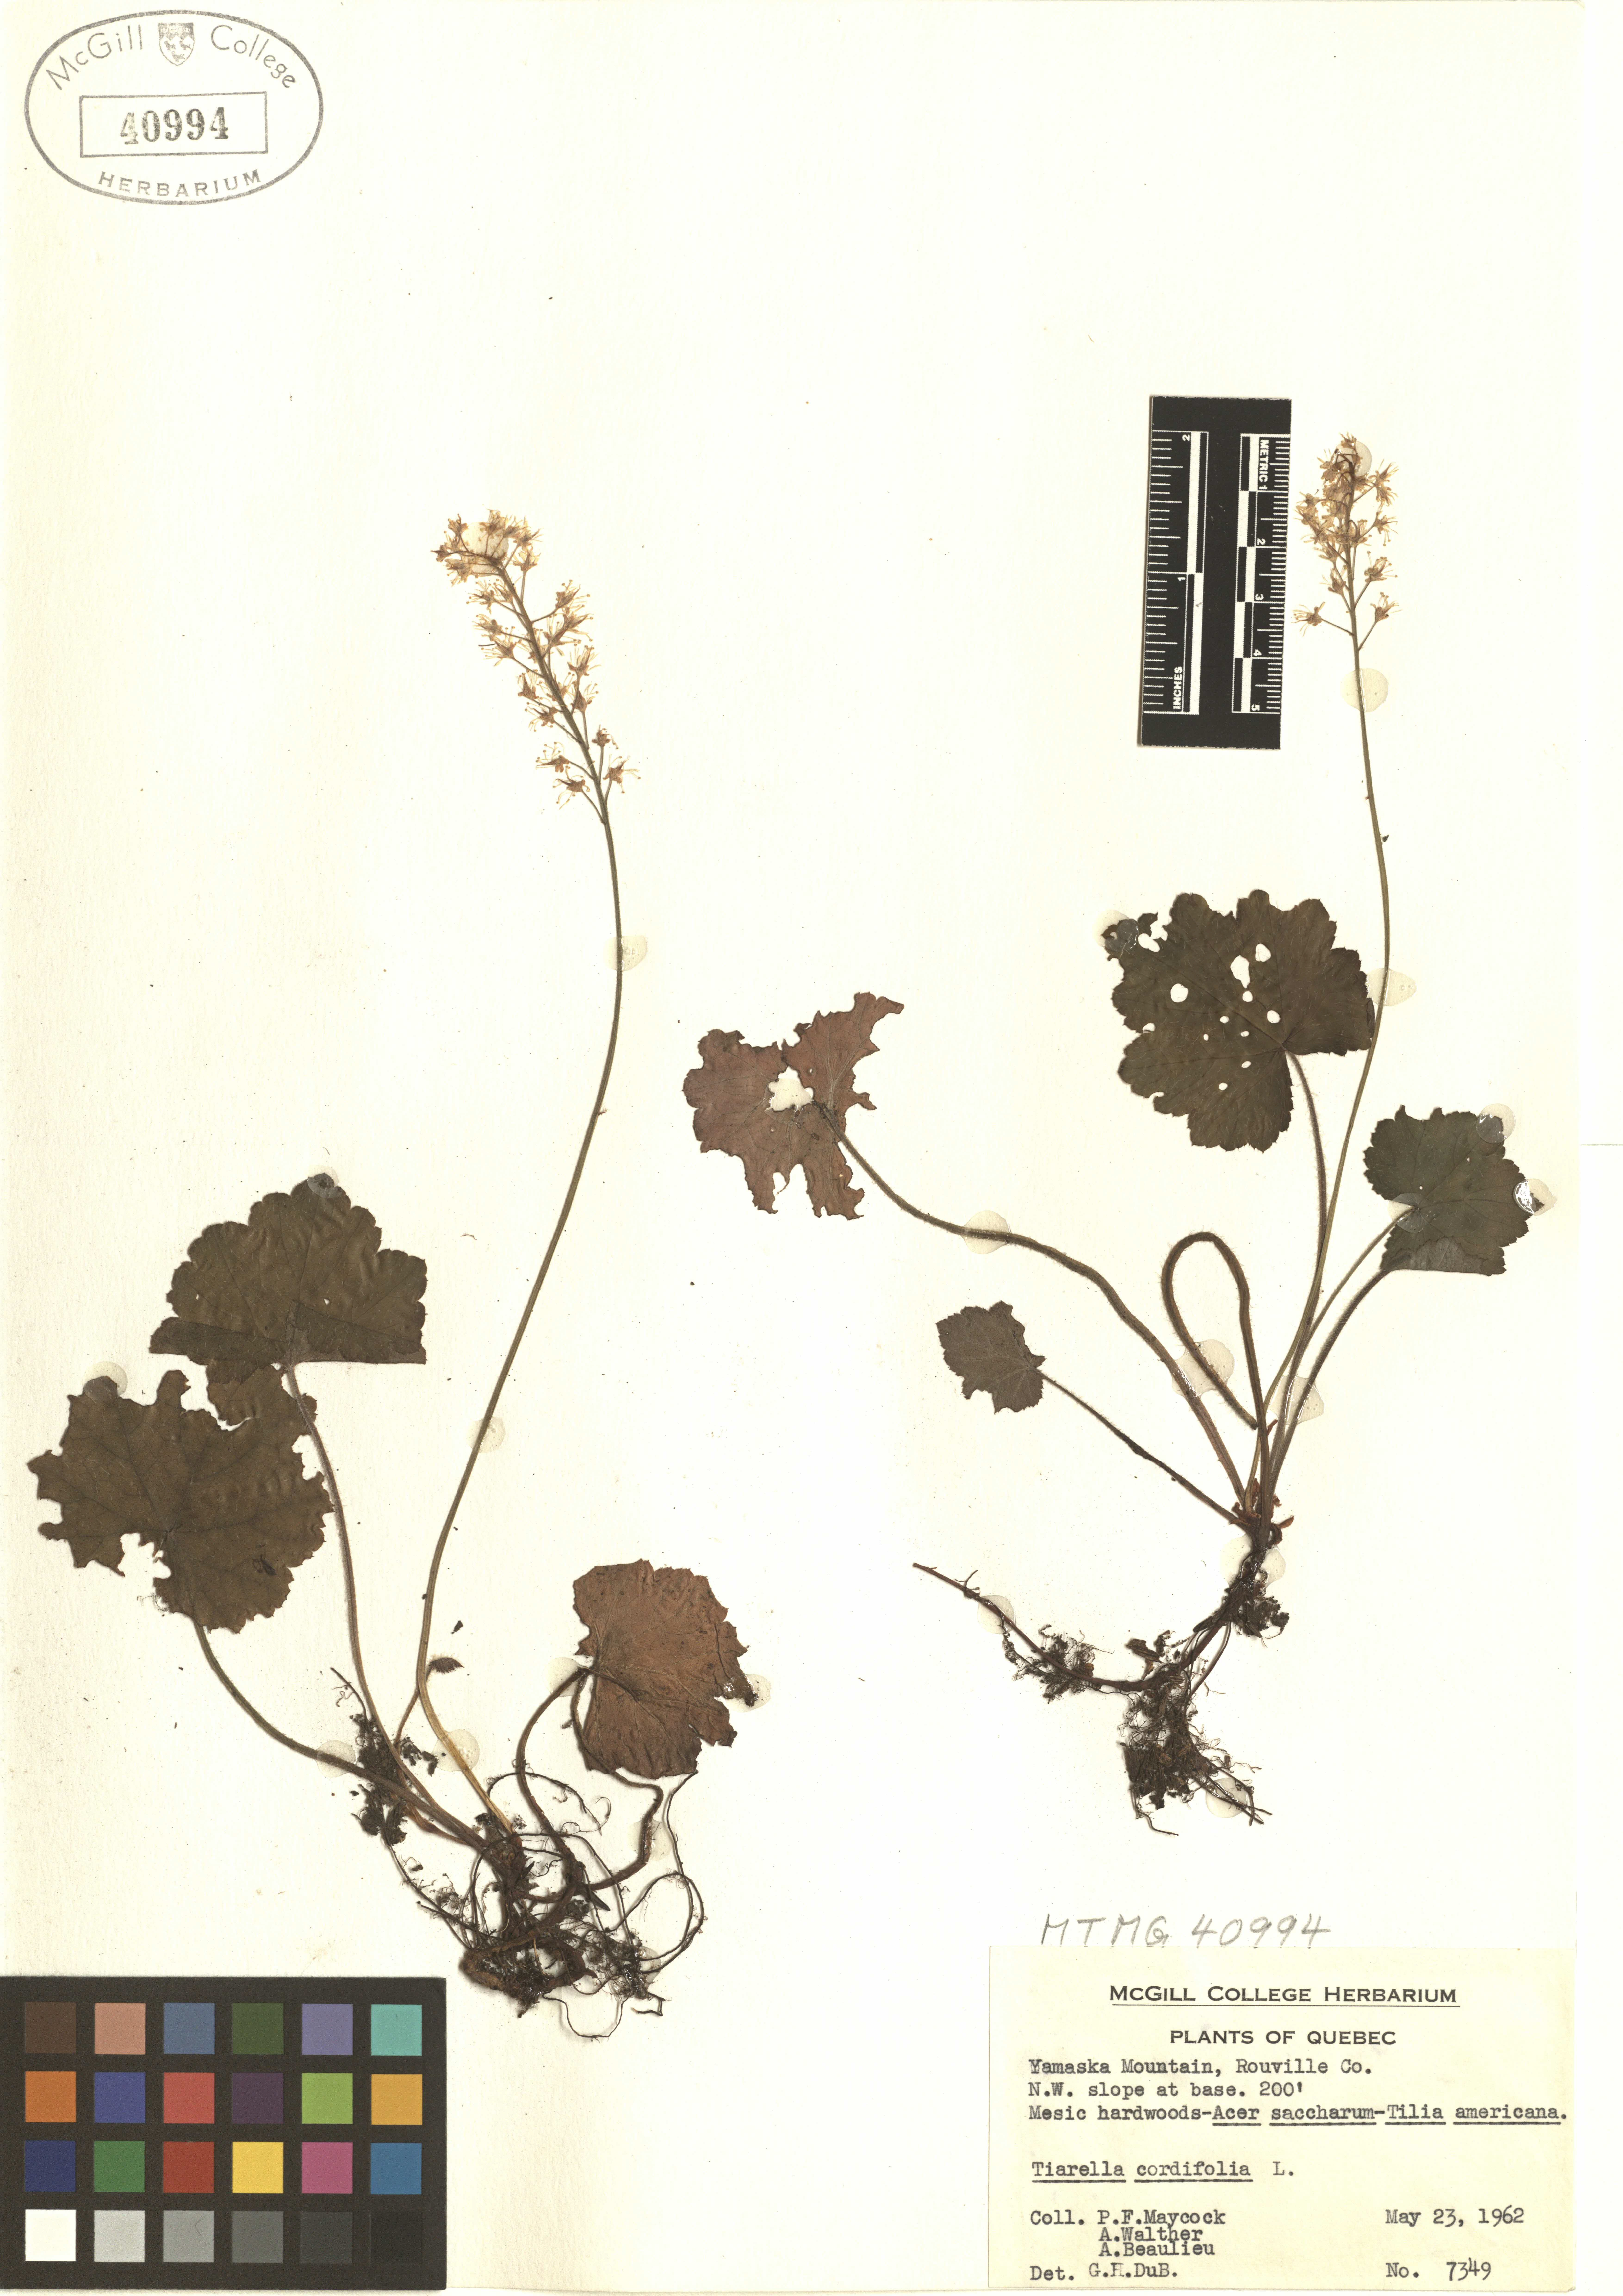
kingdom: Plantae
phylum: Tracheophyta
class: Magnoliopsida
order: Saxifragales
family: Saxifragaceae
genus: Tiarella
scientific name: Tiarella cordifolia
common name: Foamflower
